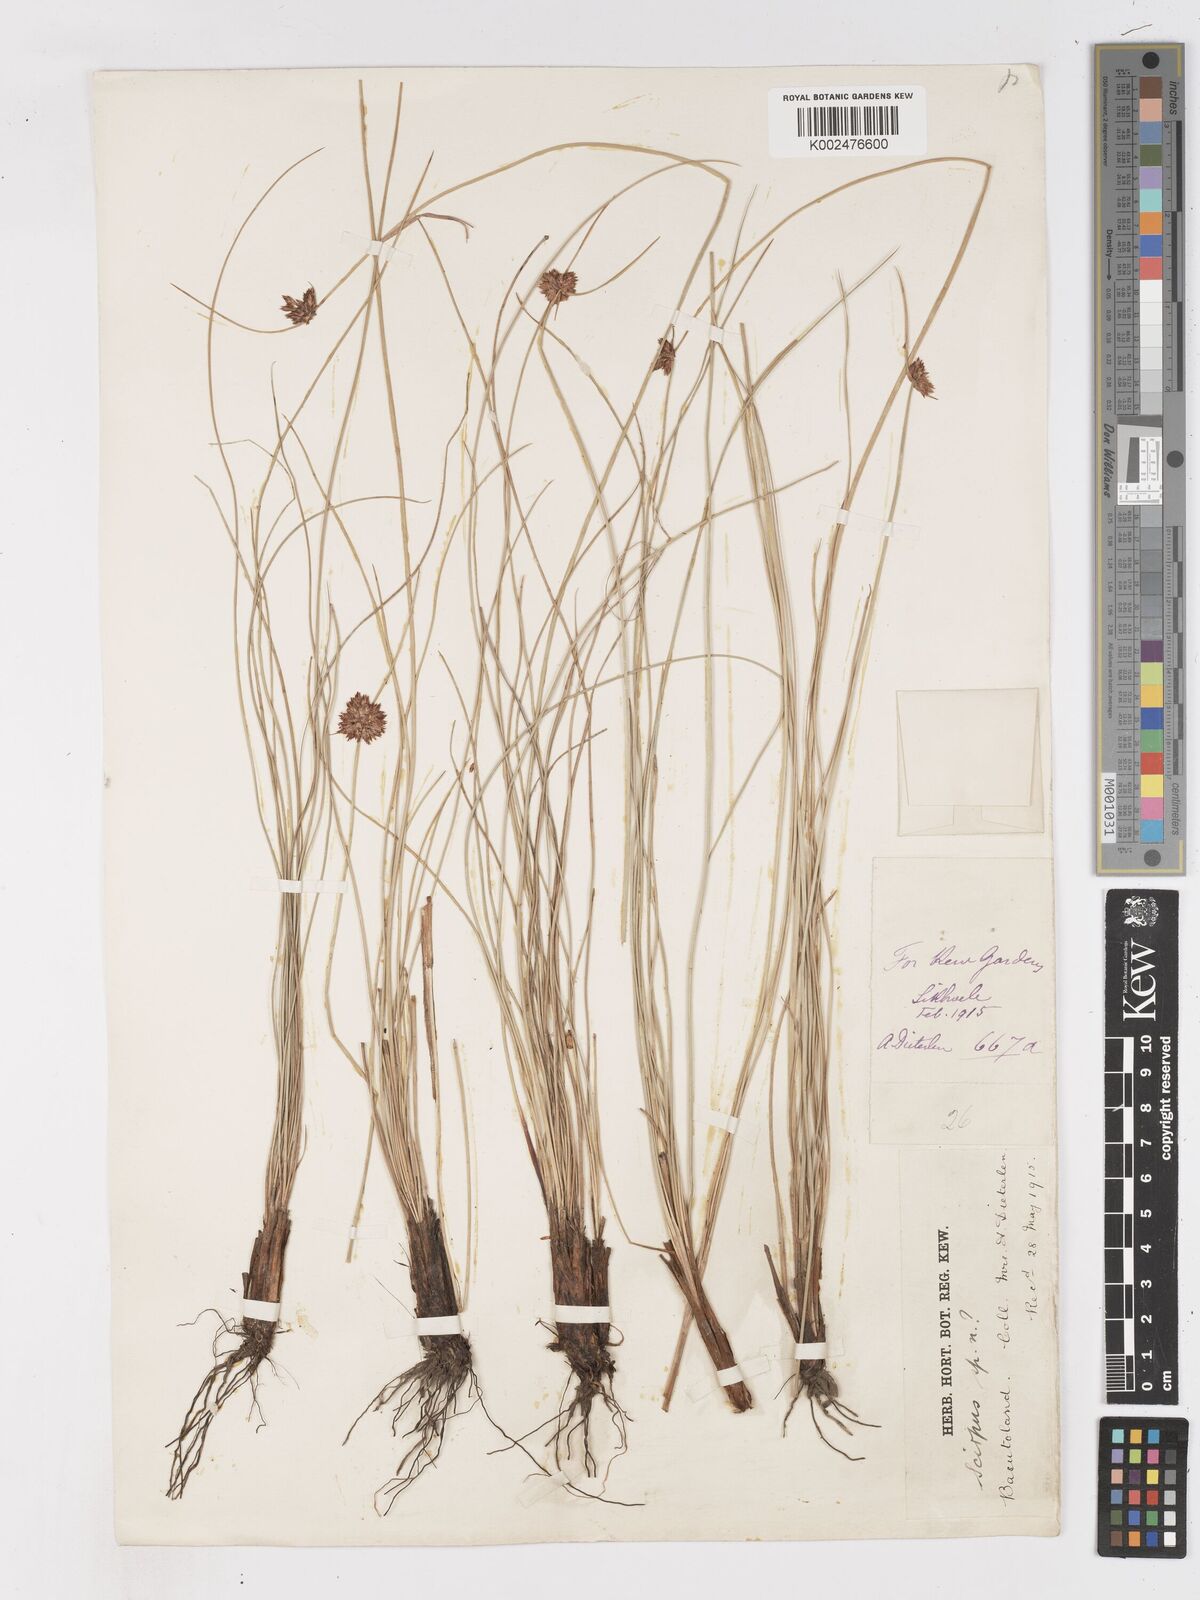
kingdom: Plantae
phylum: Tracheophyta
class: Liliopsida
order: Poales
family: Cyperaceae
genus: Ficinia
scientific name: Ficinia
